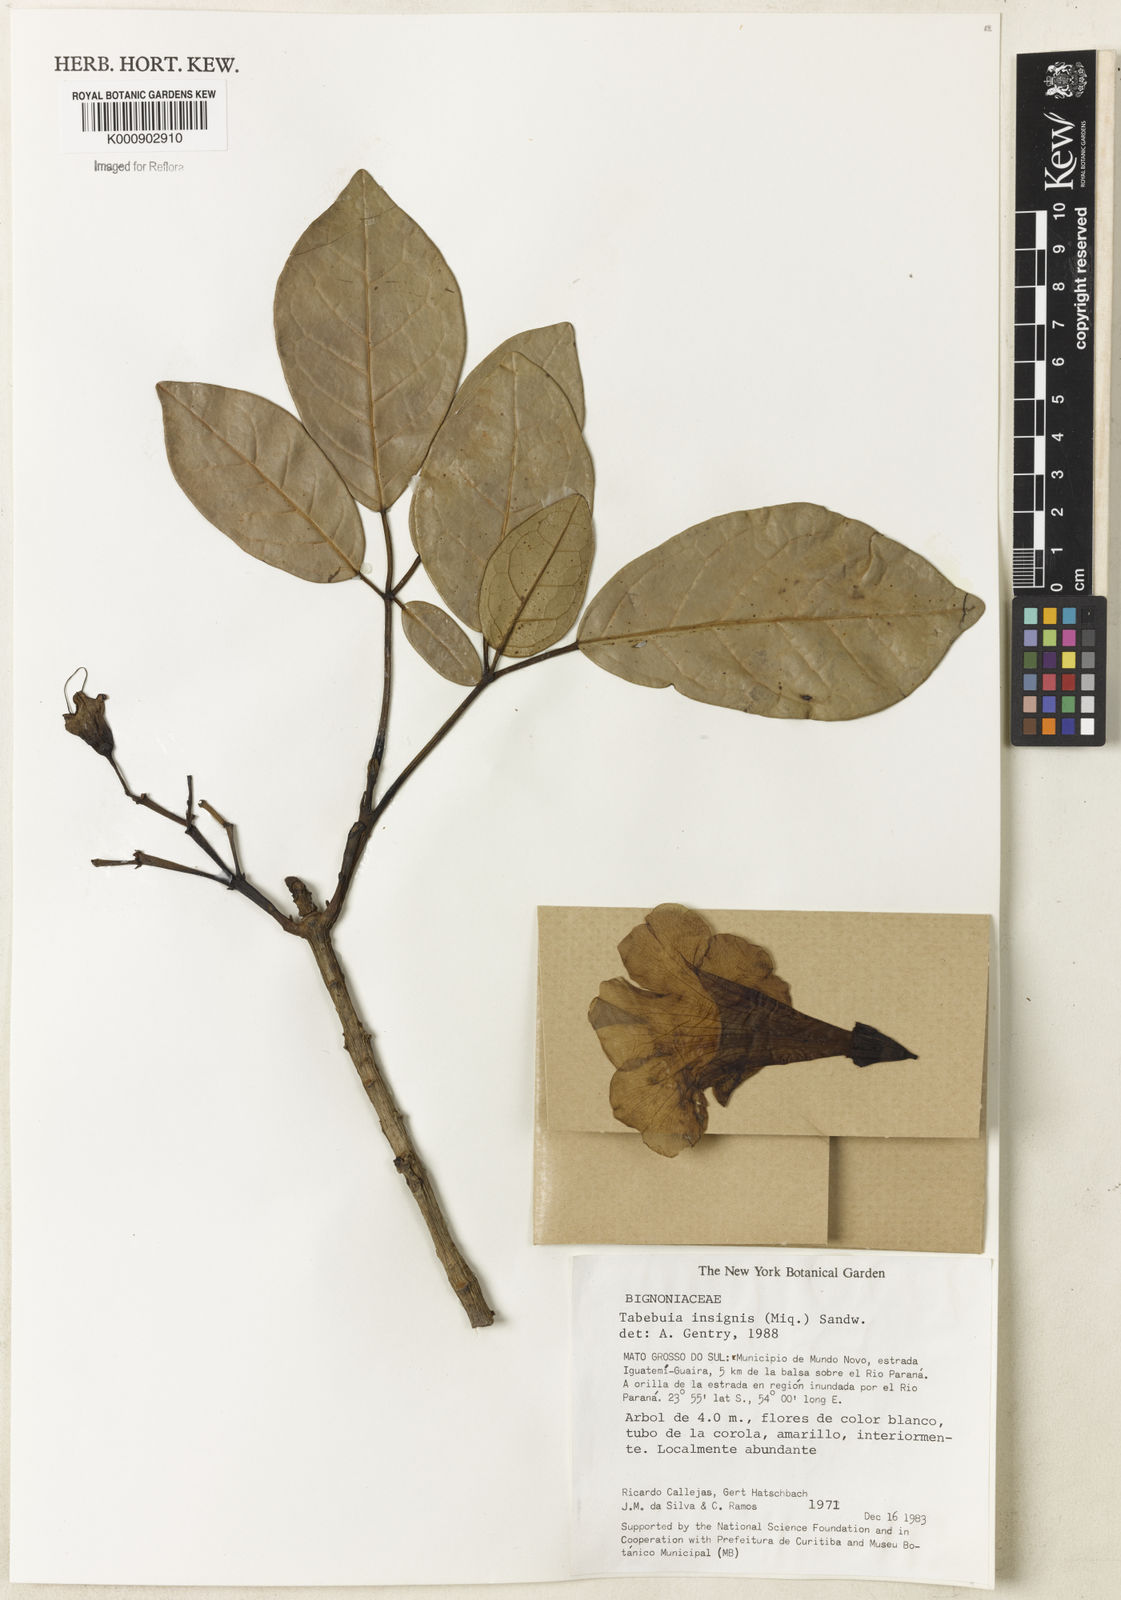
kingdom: Plantae
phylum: Tracheophyta
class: Magnoliopsida
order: Lamiales
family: Bignoniaceae
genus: Tabebuia
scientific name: Tabebuia insignis
